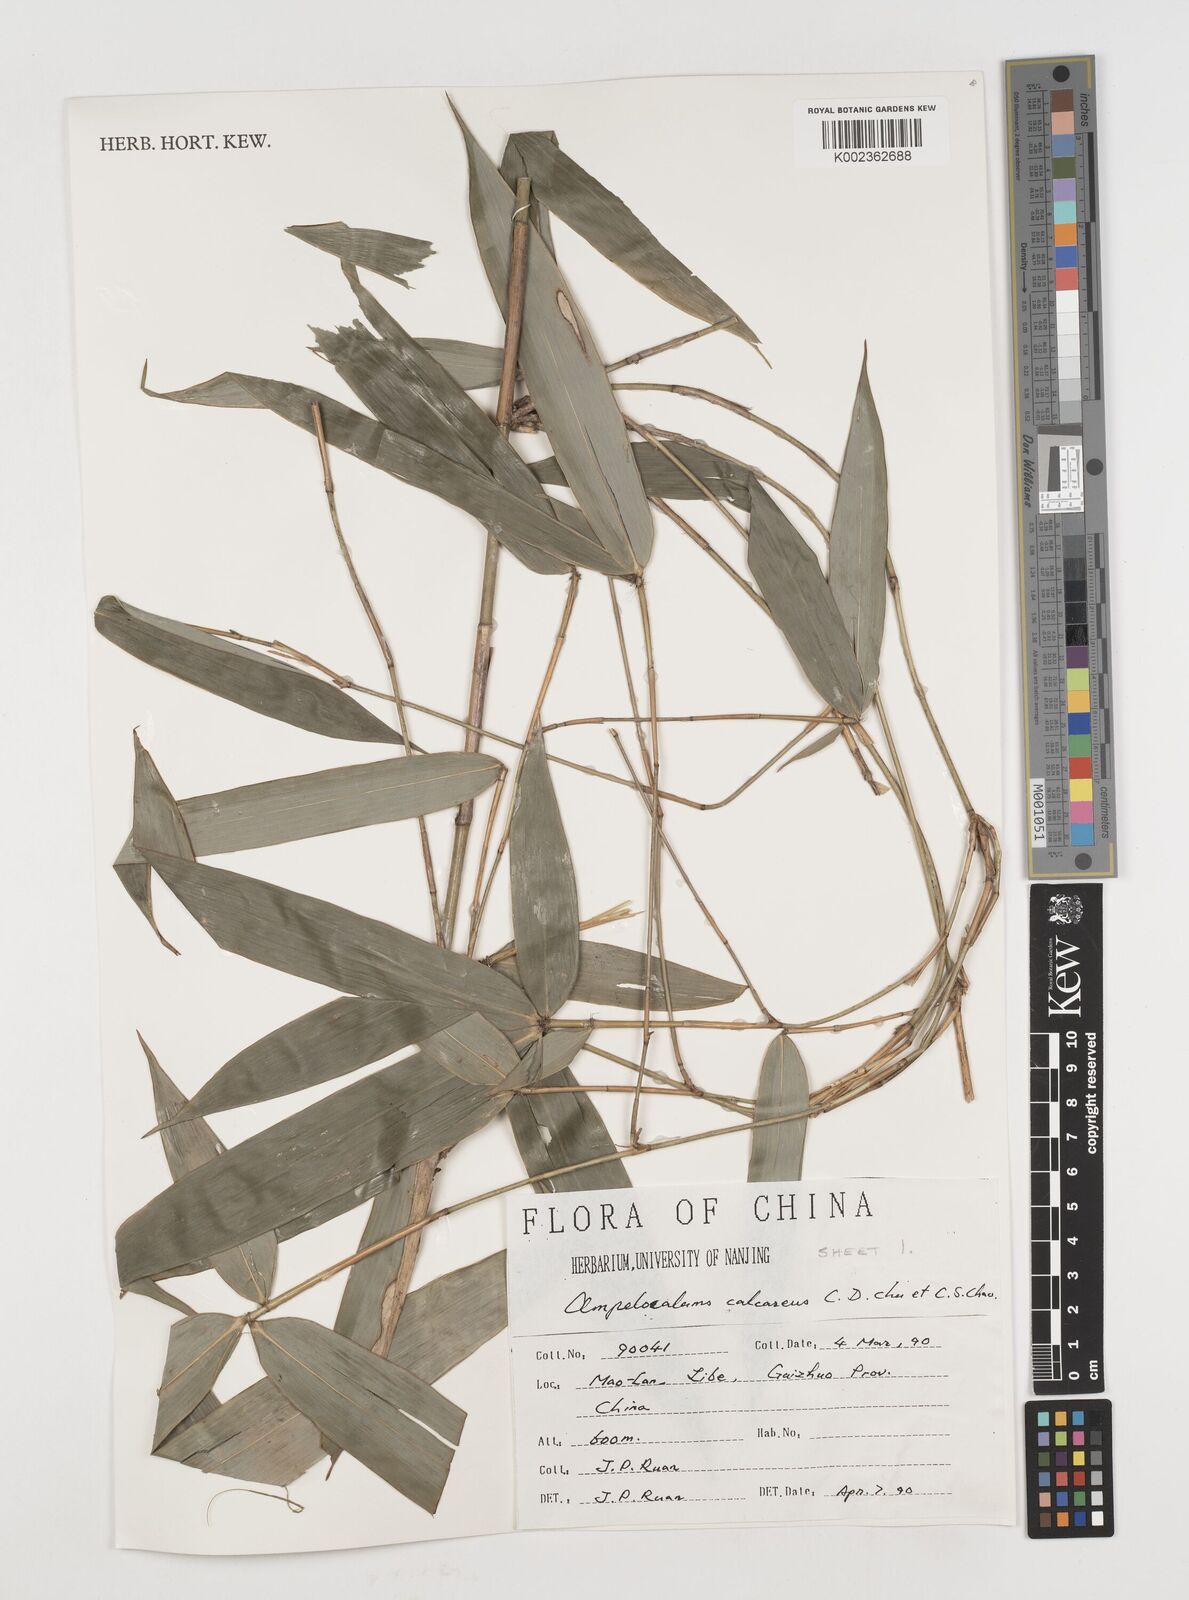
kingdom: Plantae
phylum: Tracheophyta
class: Liliopsida
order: Poales
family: Poaceae
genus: Acidosasa
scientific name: Acidosasa
